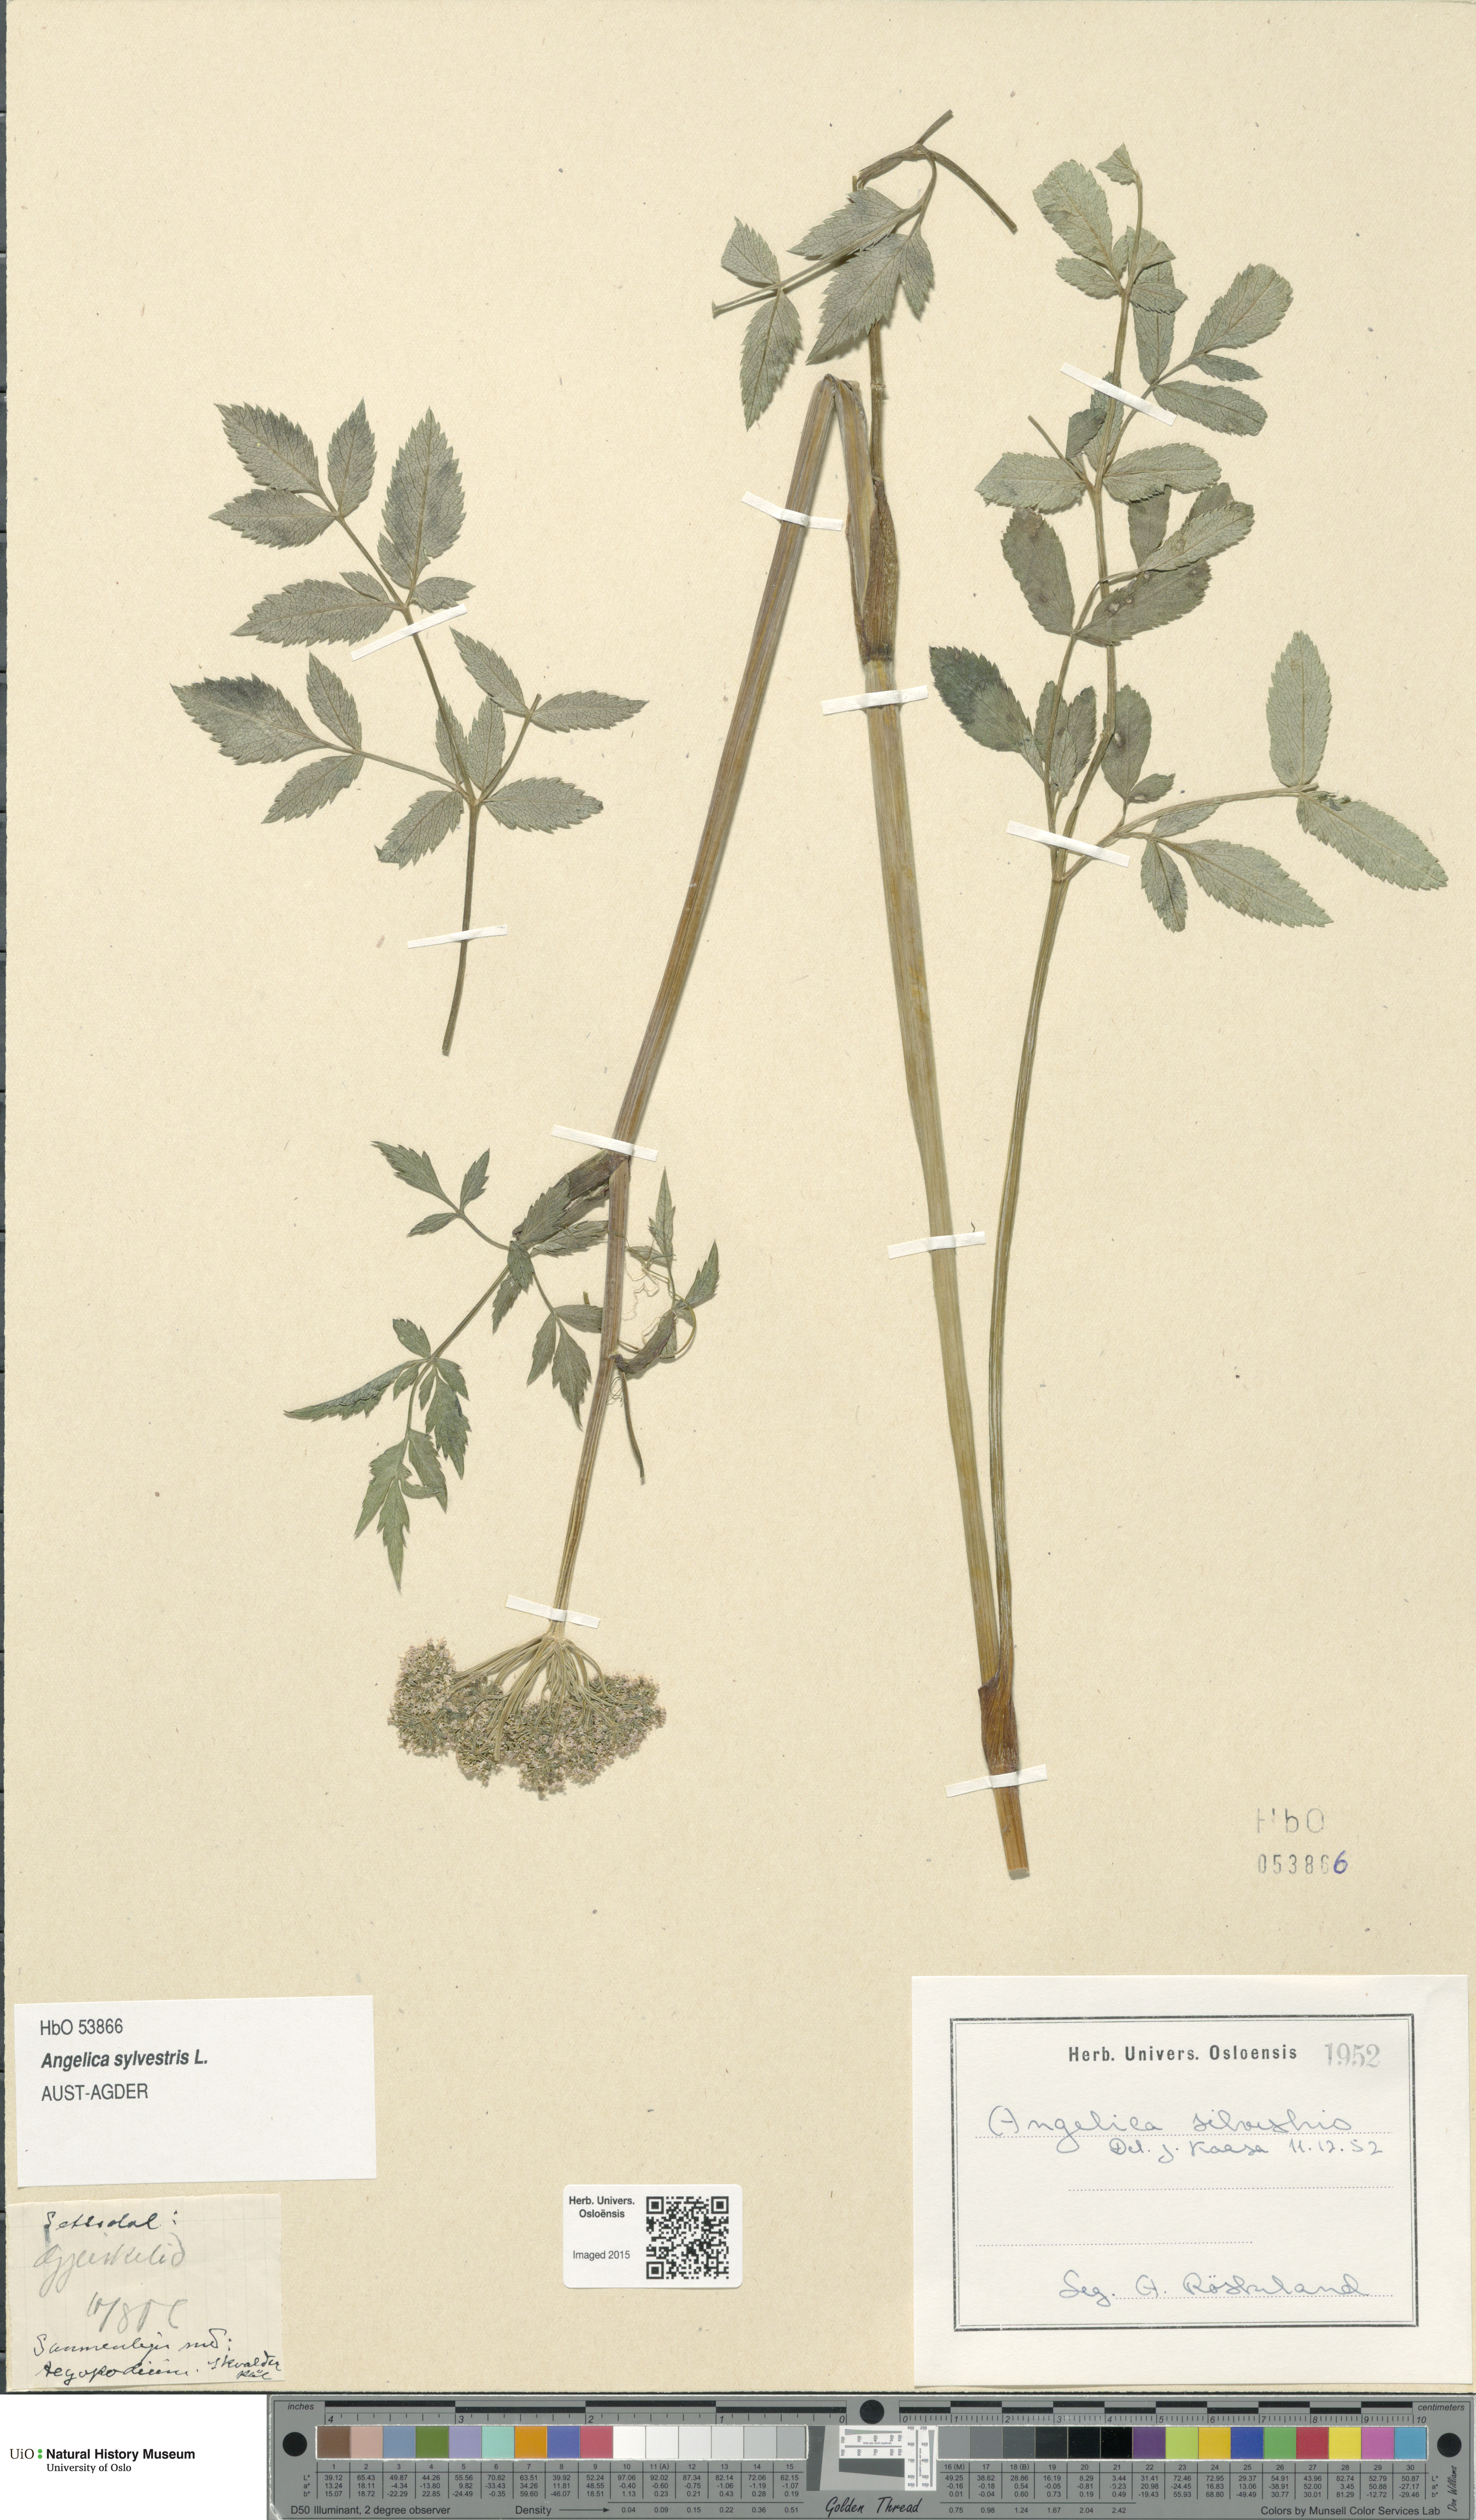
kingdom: Plantae
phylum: Tracheophyta
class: Magnoliopsida
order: Apiales
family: Apiaceae
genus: Angelica
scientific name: Angelica sylvestris
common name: Wild angelica
